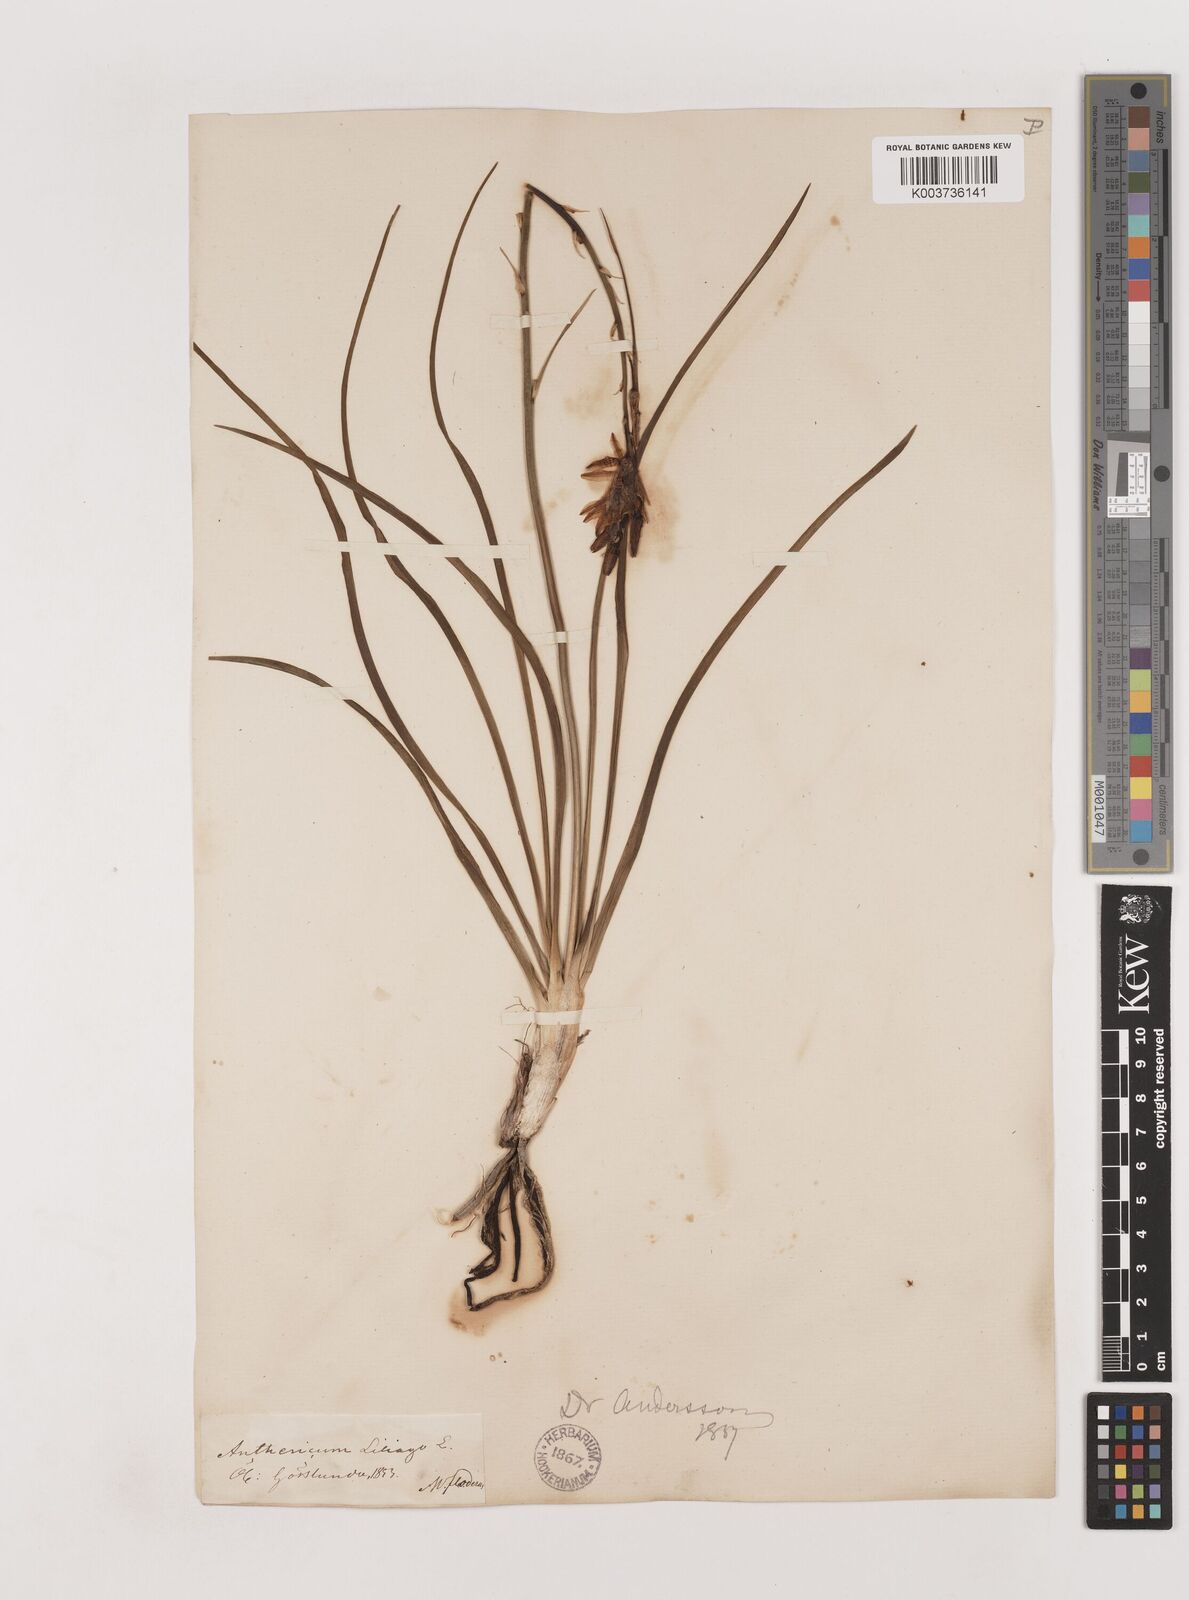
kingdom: Plantae
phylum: Tracheophyta
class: Liliopsida
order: Asparagales
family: Asparagaceae
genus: Anthericum
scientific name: Anthericum liliago
